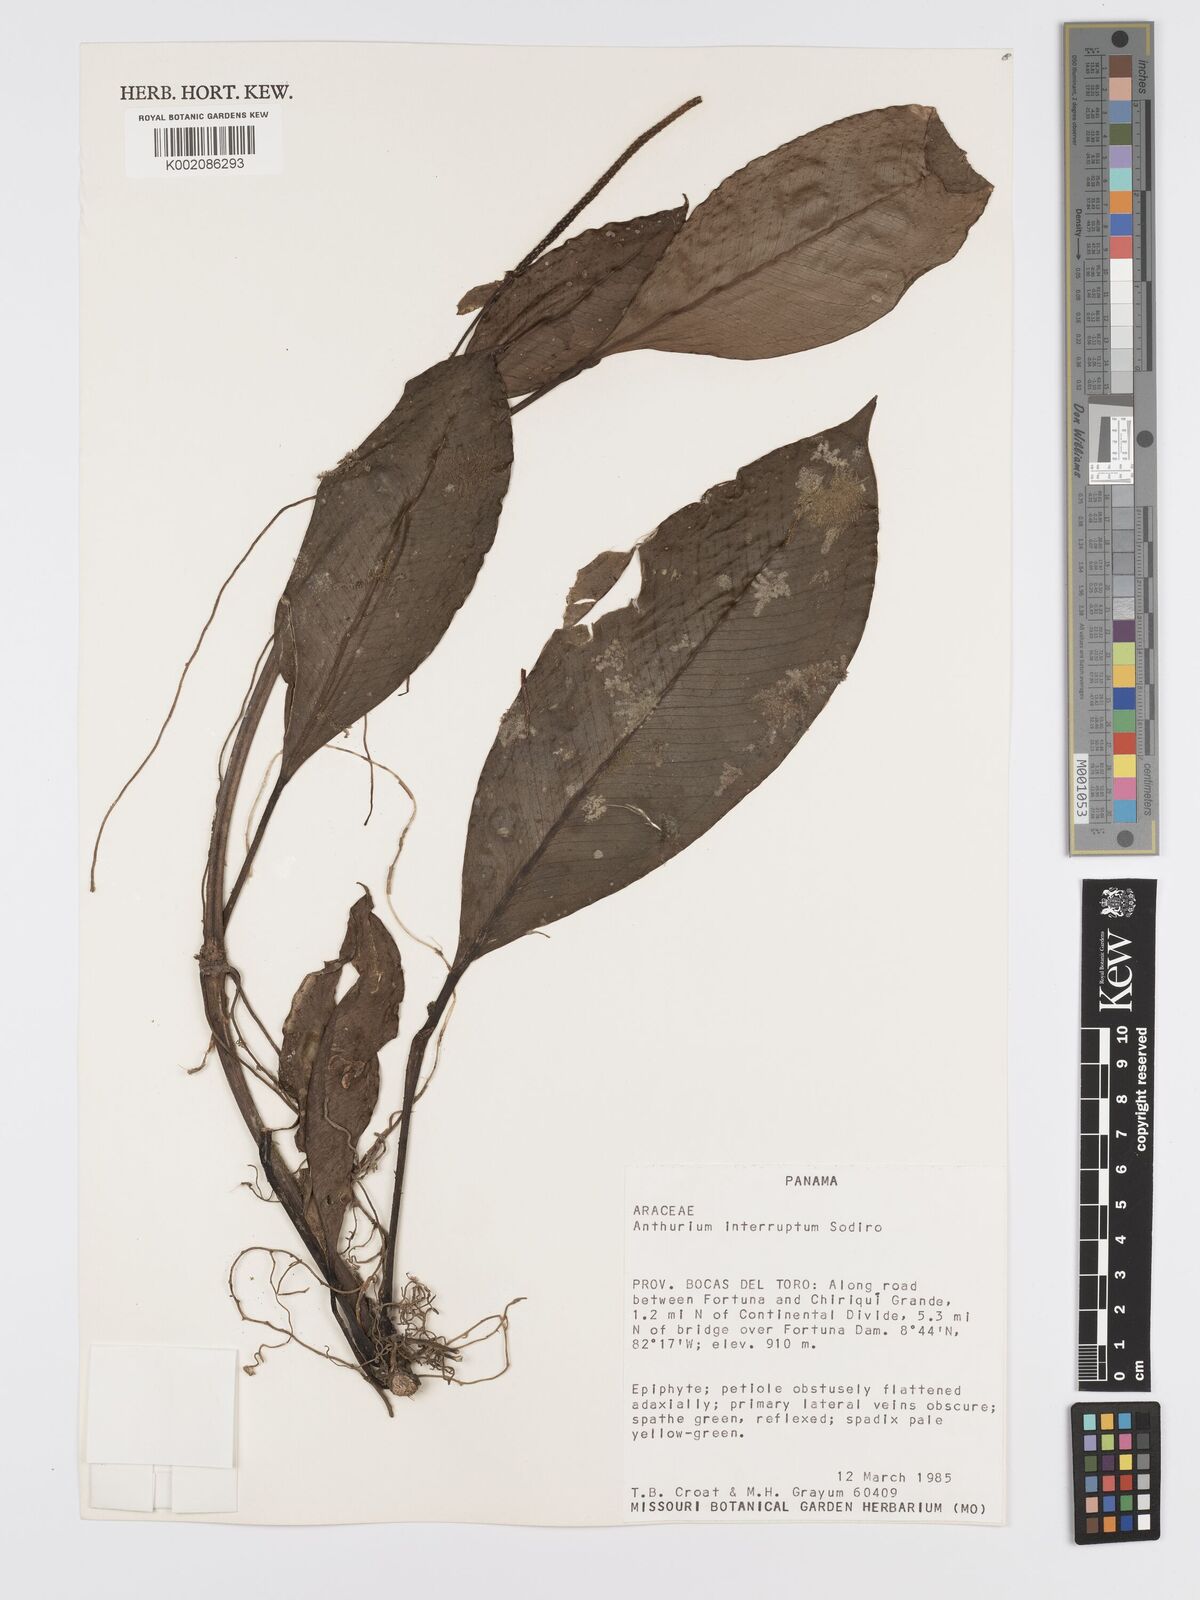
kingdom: Plantae
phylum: Tracheophyta
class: Liliopsida
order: Alismatales
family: Araceae
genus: Anthurium
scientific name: Anthurium interruptum
